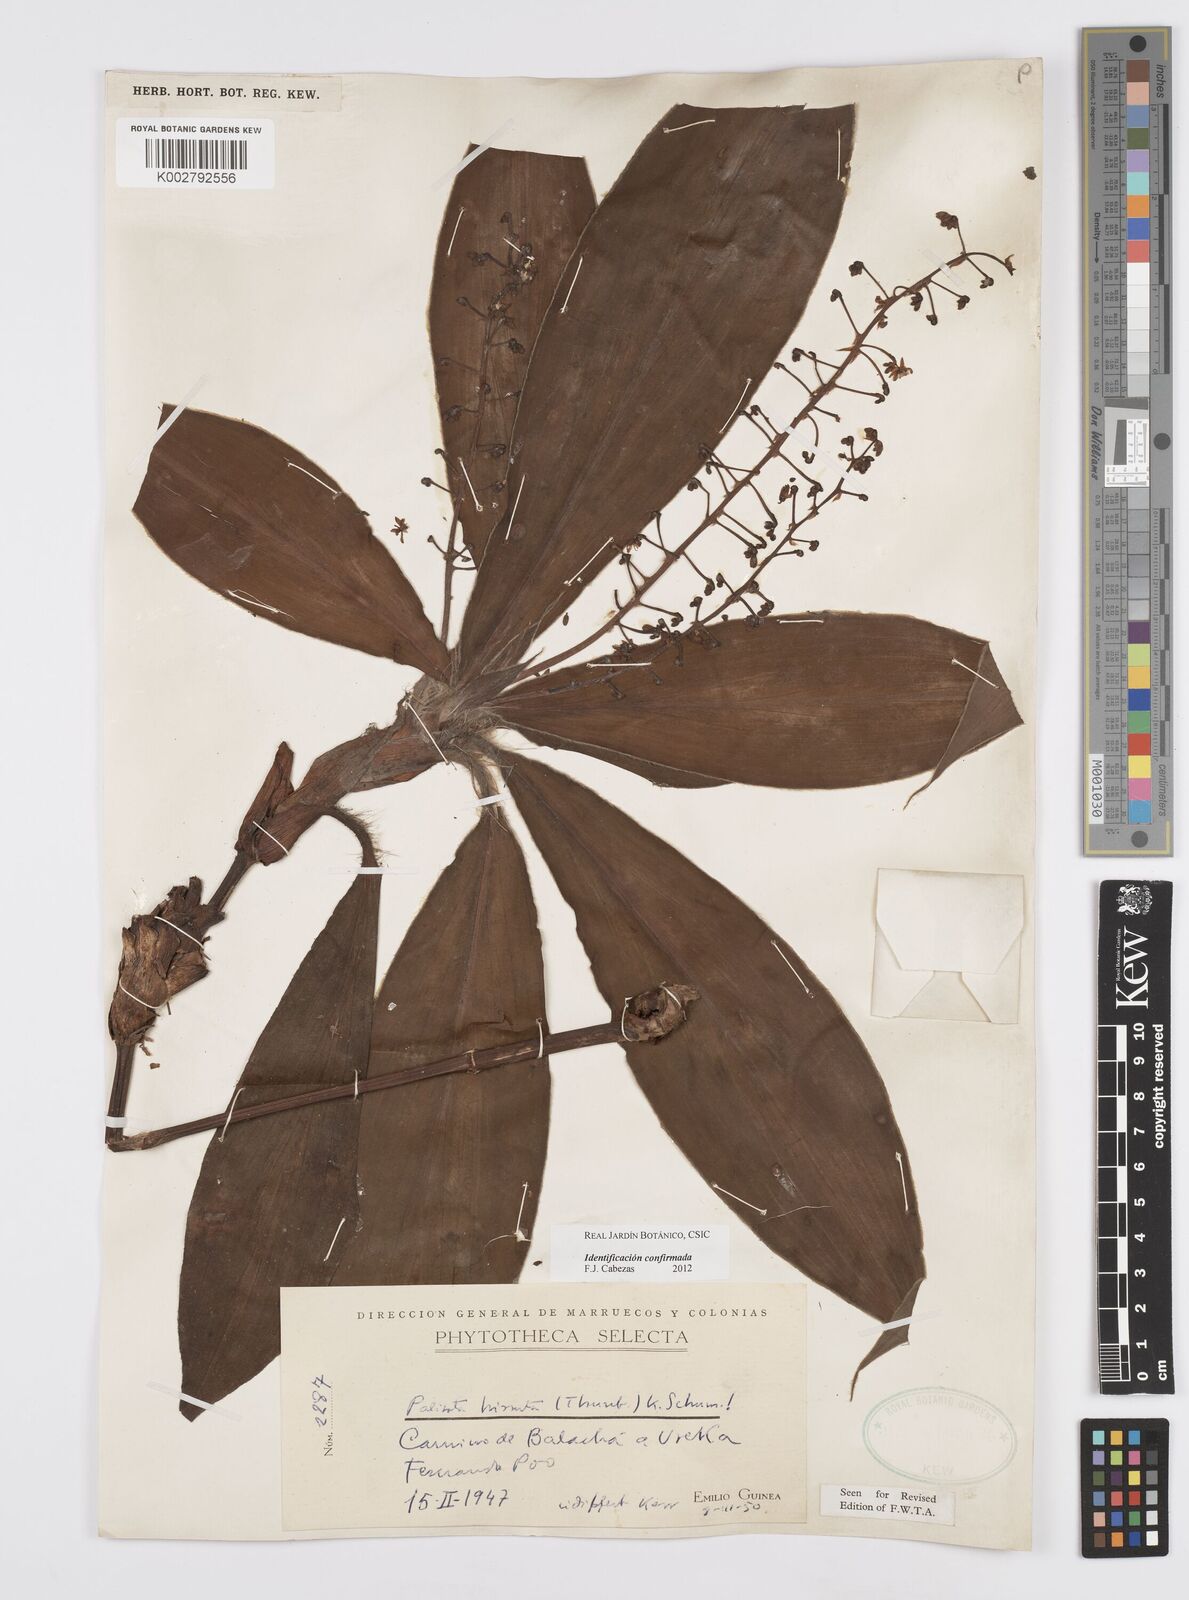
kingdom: Plantae
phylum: Tracheophyta
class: Liliopsida
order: Commelinales
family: Commelinaceae
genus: Palisota
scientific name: Palisota hirsuta
